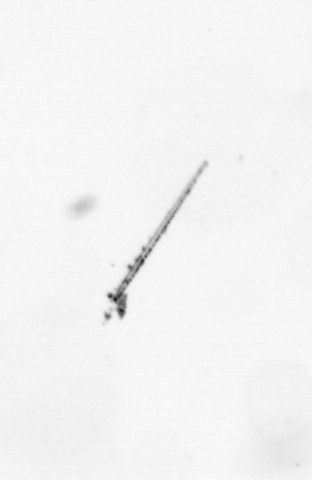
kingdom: Chromista
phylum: Ochrophyta
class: Bacillariophyceae
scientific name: Bacillariophyceae
